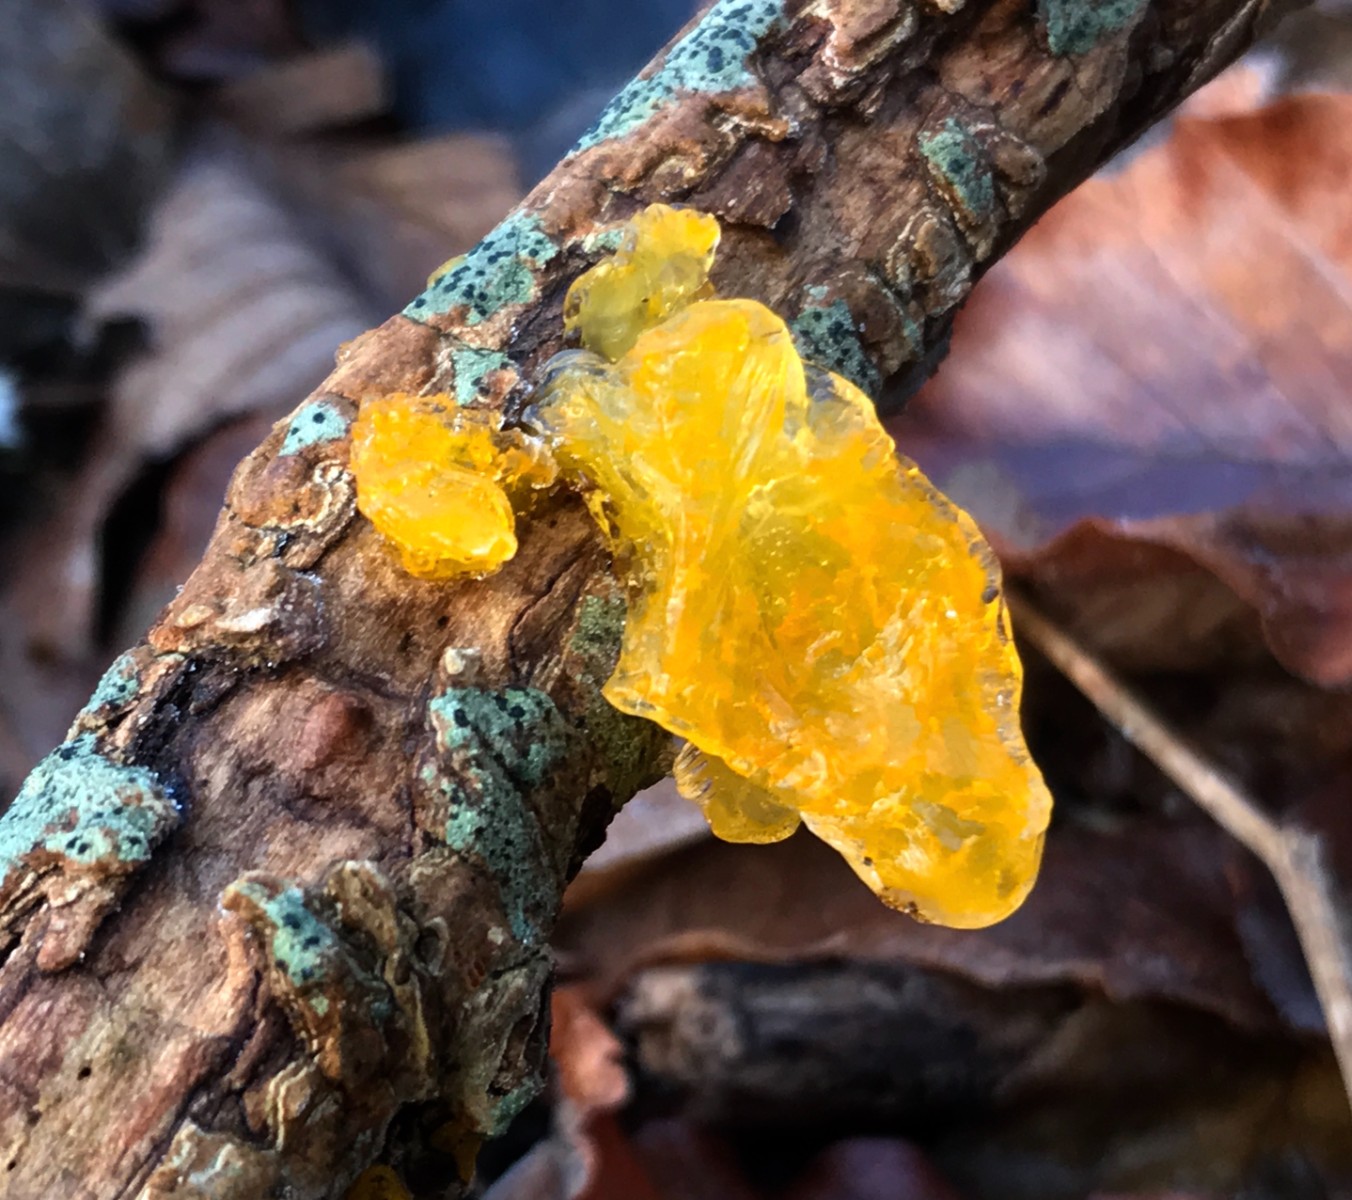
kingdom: Fungi
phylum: Basidiomycota
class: Tremellomycetes
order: Tremellales
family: Tremellaceae
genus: Tremella
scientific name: Tremella mesenterica
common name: gul bævresvamp
